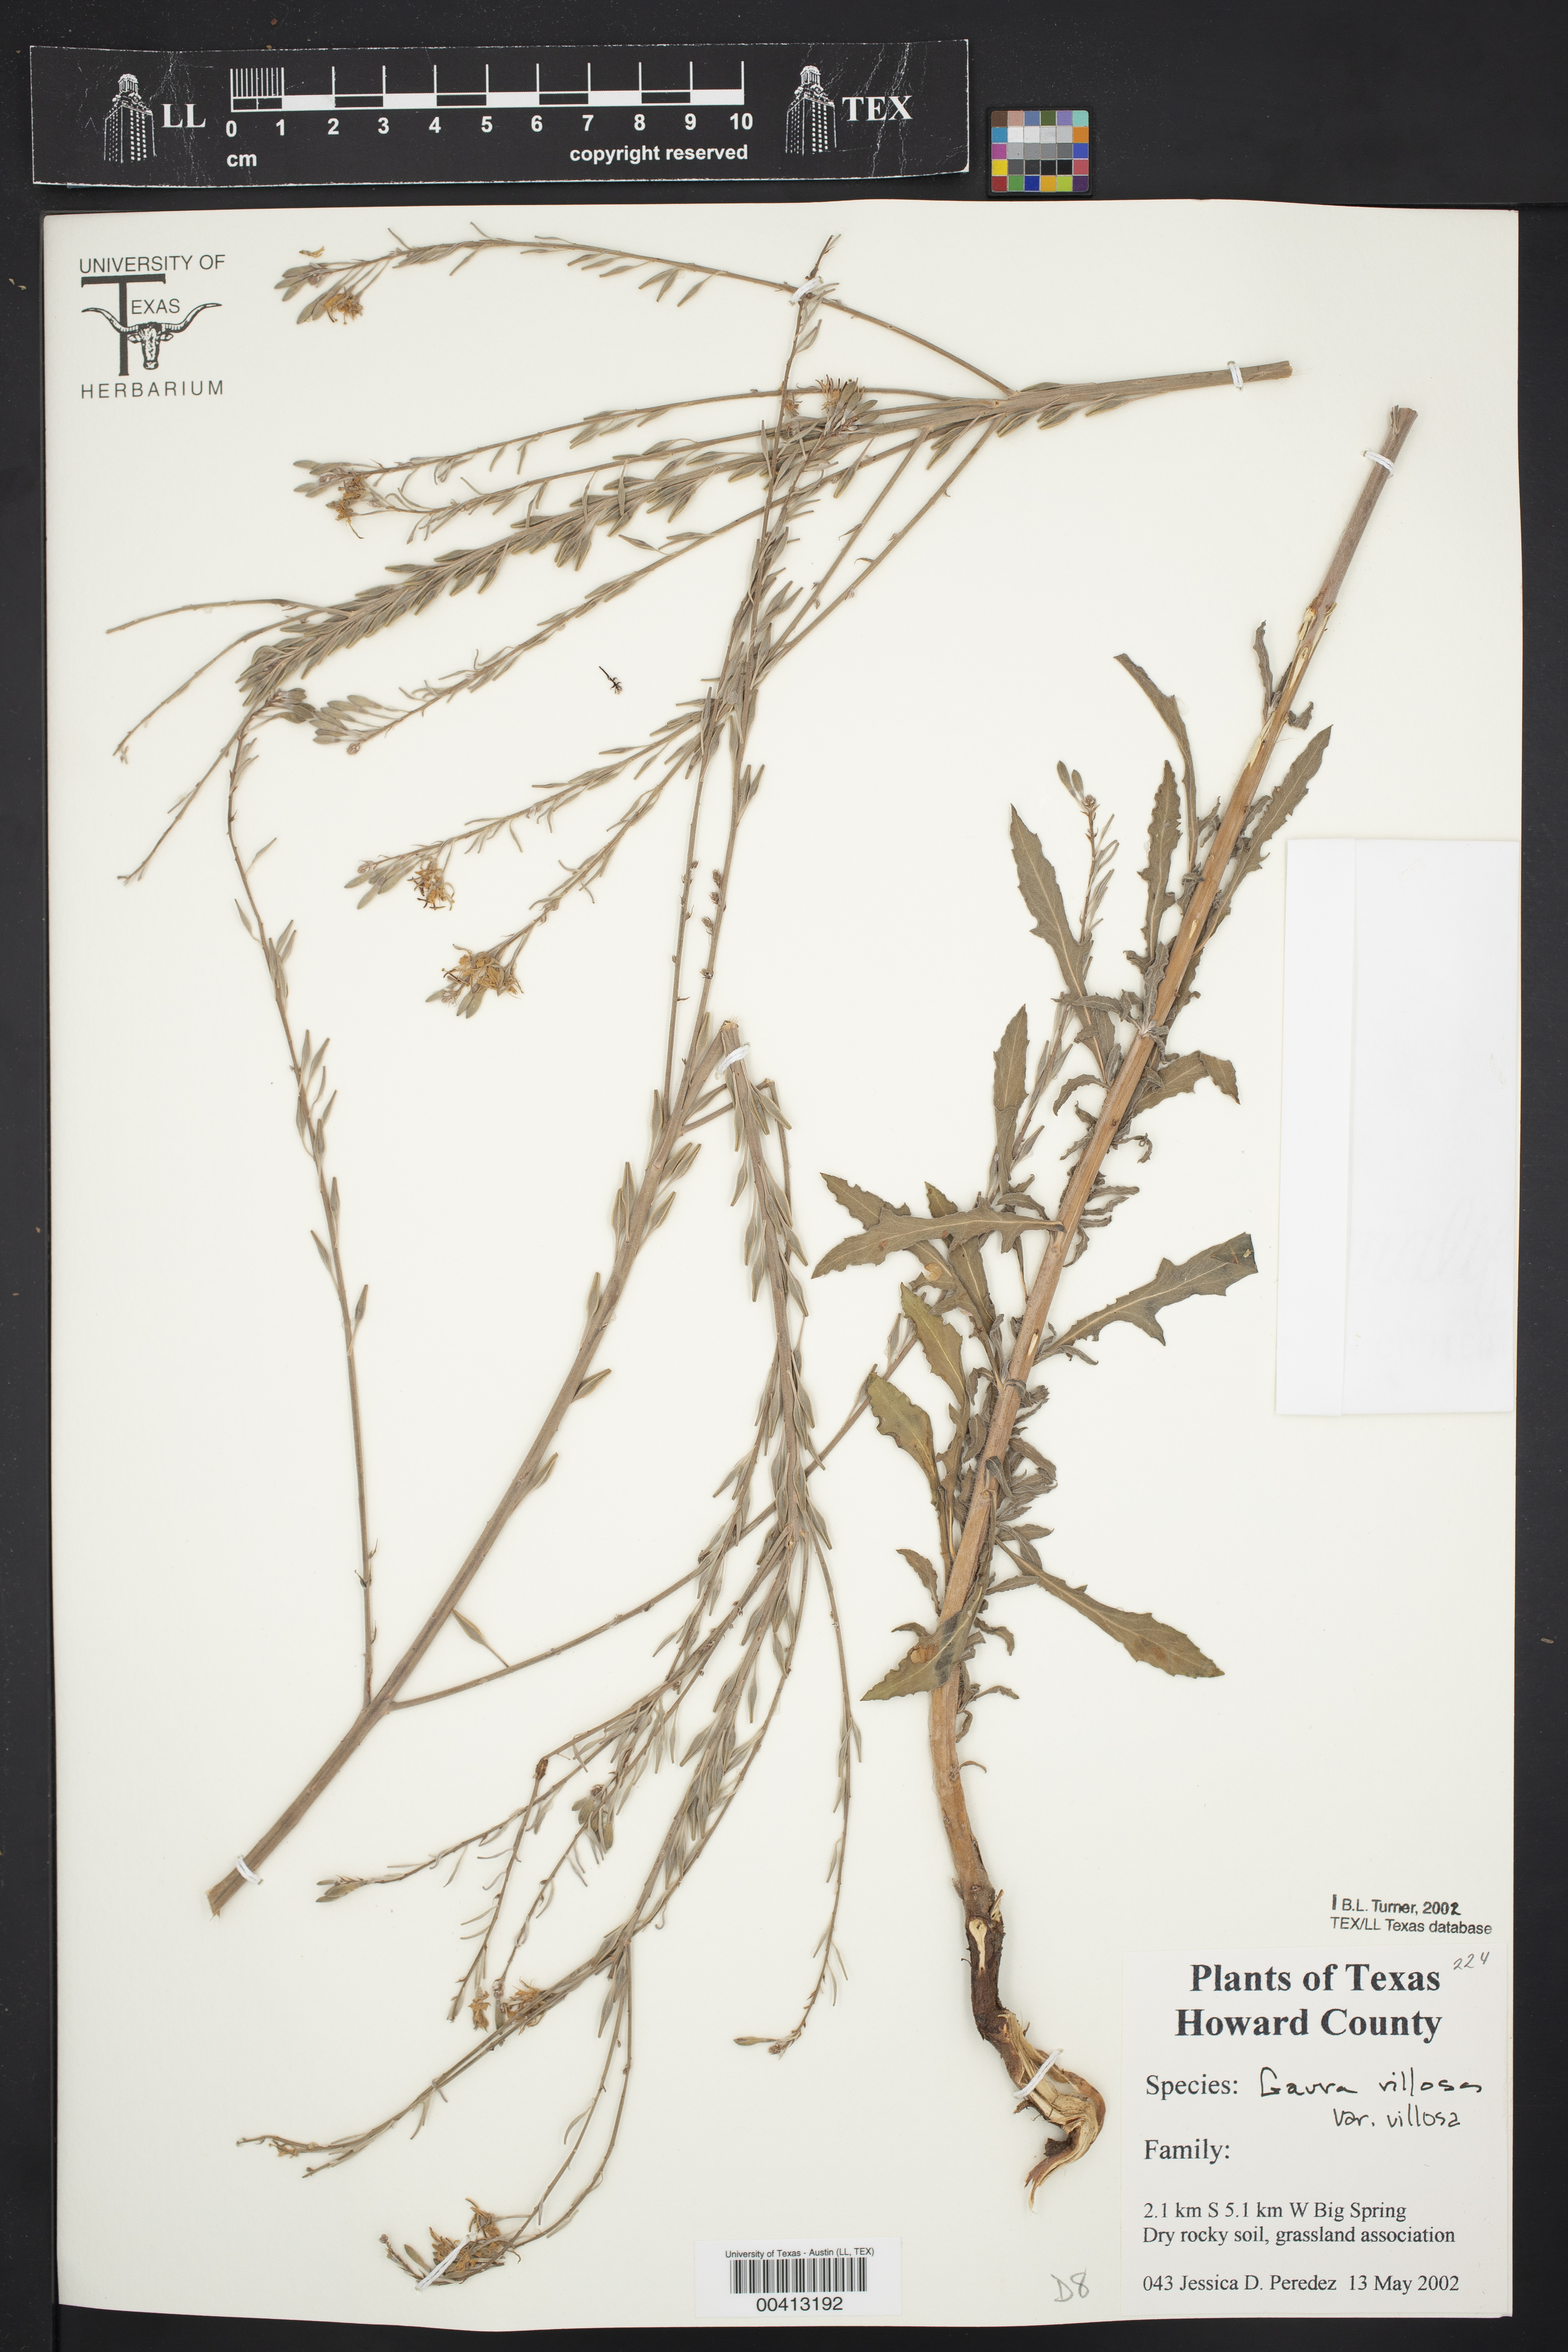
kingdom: Plantae
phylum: Tracheophyta
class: Magnoliopsida
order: Myrtales
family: Onagraceae
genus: Oenothera
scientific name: Oenothera cinerea
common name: Woolly beeblossom
